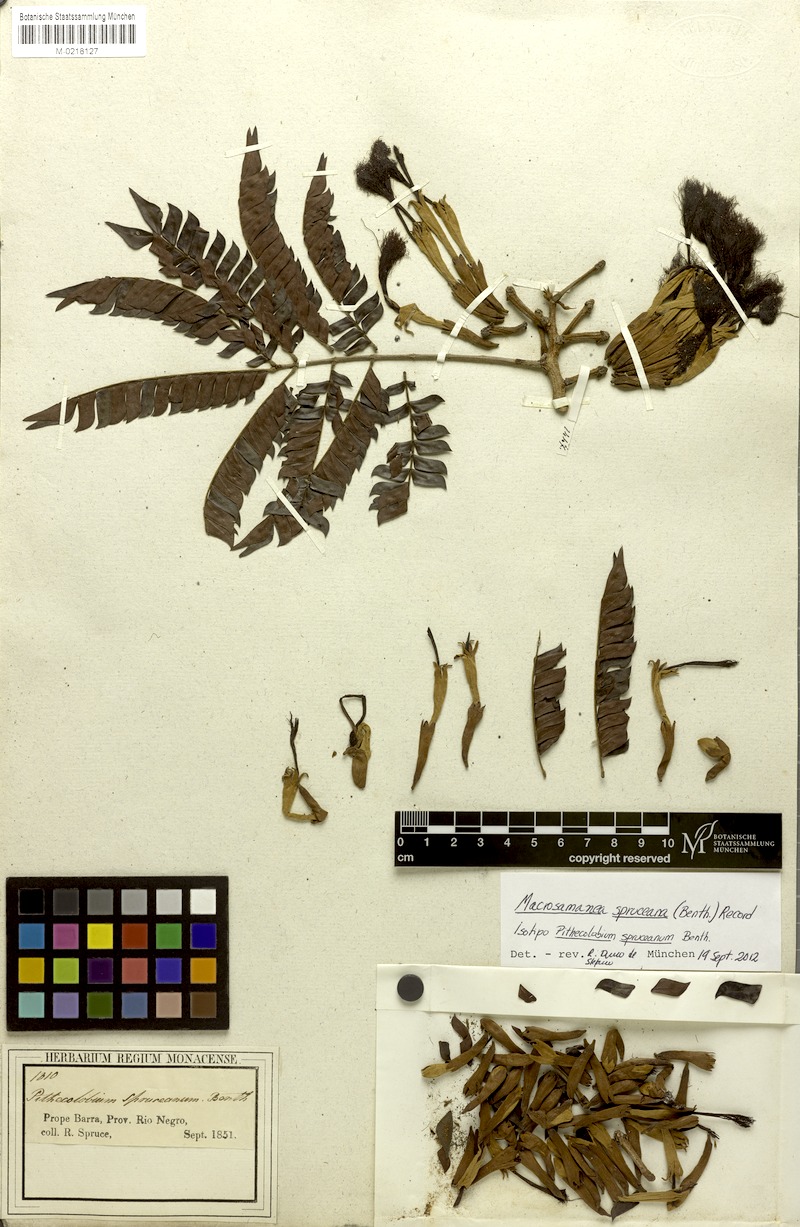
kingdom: Plantae
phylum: Tracheophyta
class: Magnoliopsida
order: Fabales
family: Fabaceae
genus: Macrosamanea
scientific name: Macrosamanea spruceana
